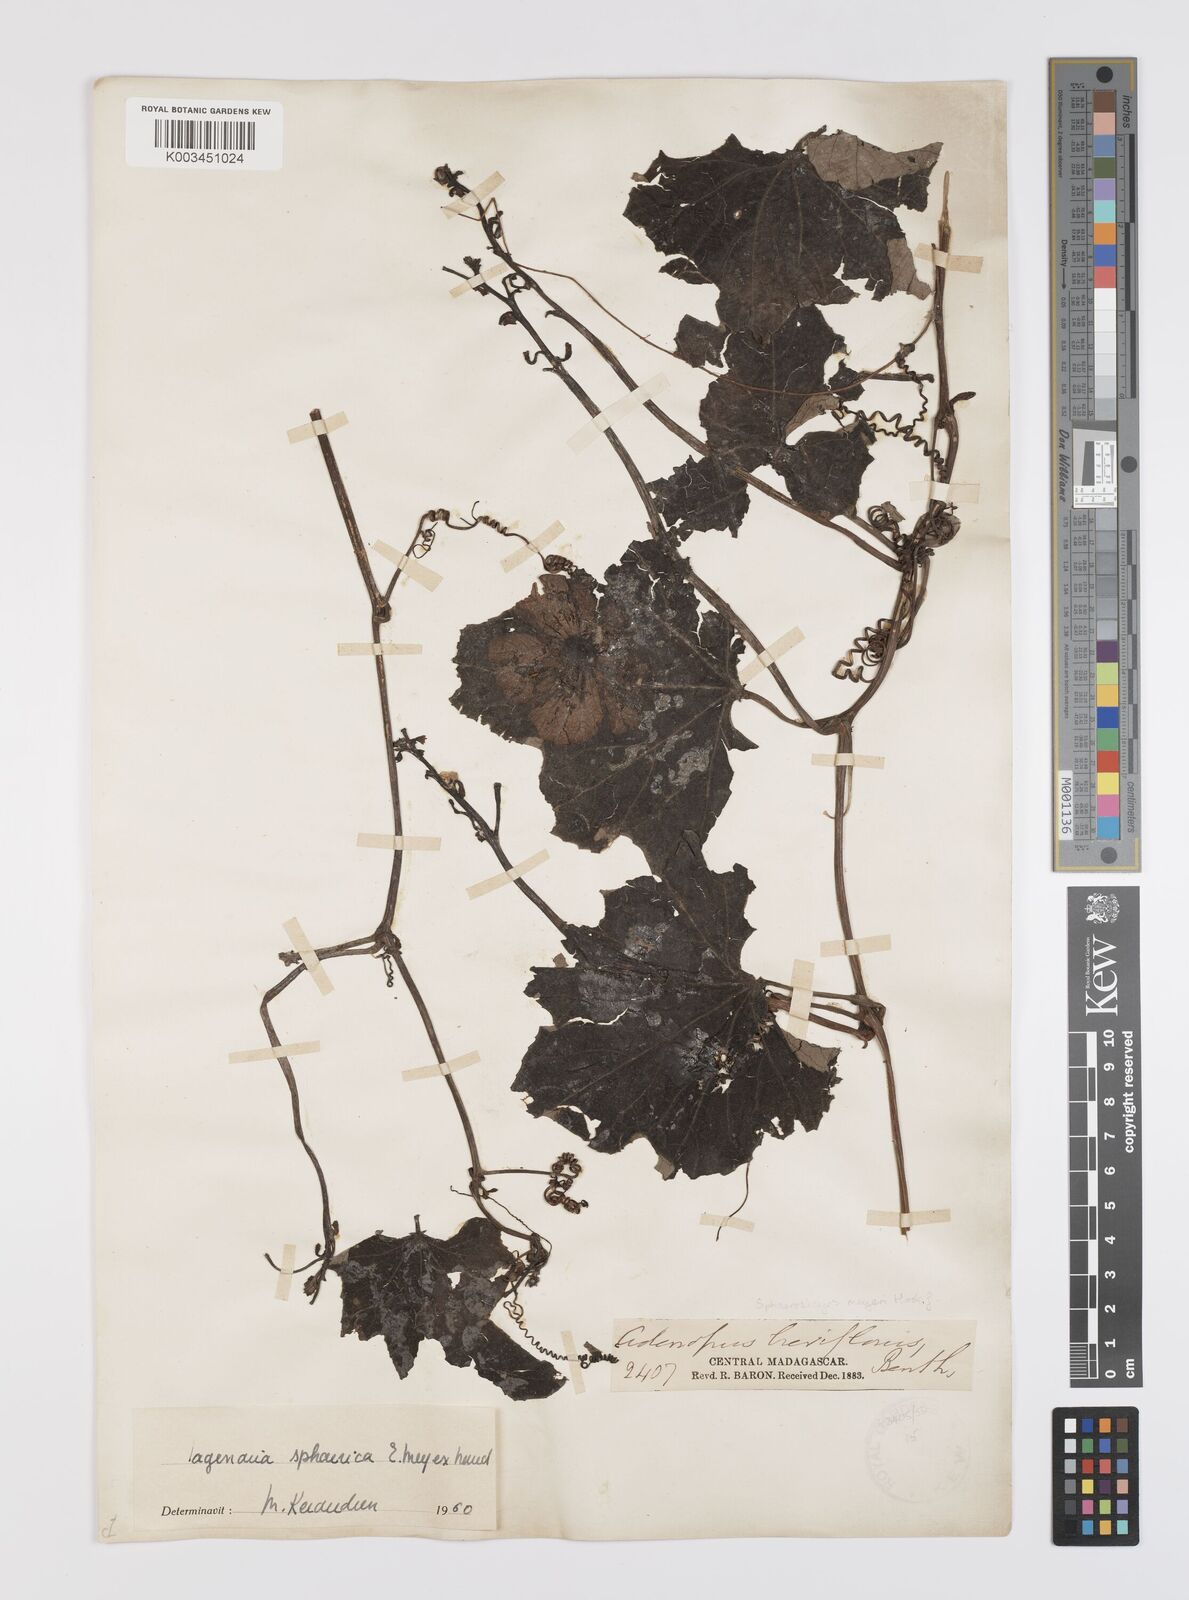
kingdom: Plantae
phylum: Tracheophyta
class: Magnoliopsida
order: Cucurbitales
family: Cucurbitaceae
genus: Lagenaria
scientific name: Lagenaria sphaerica
